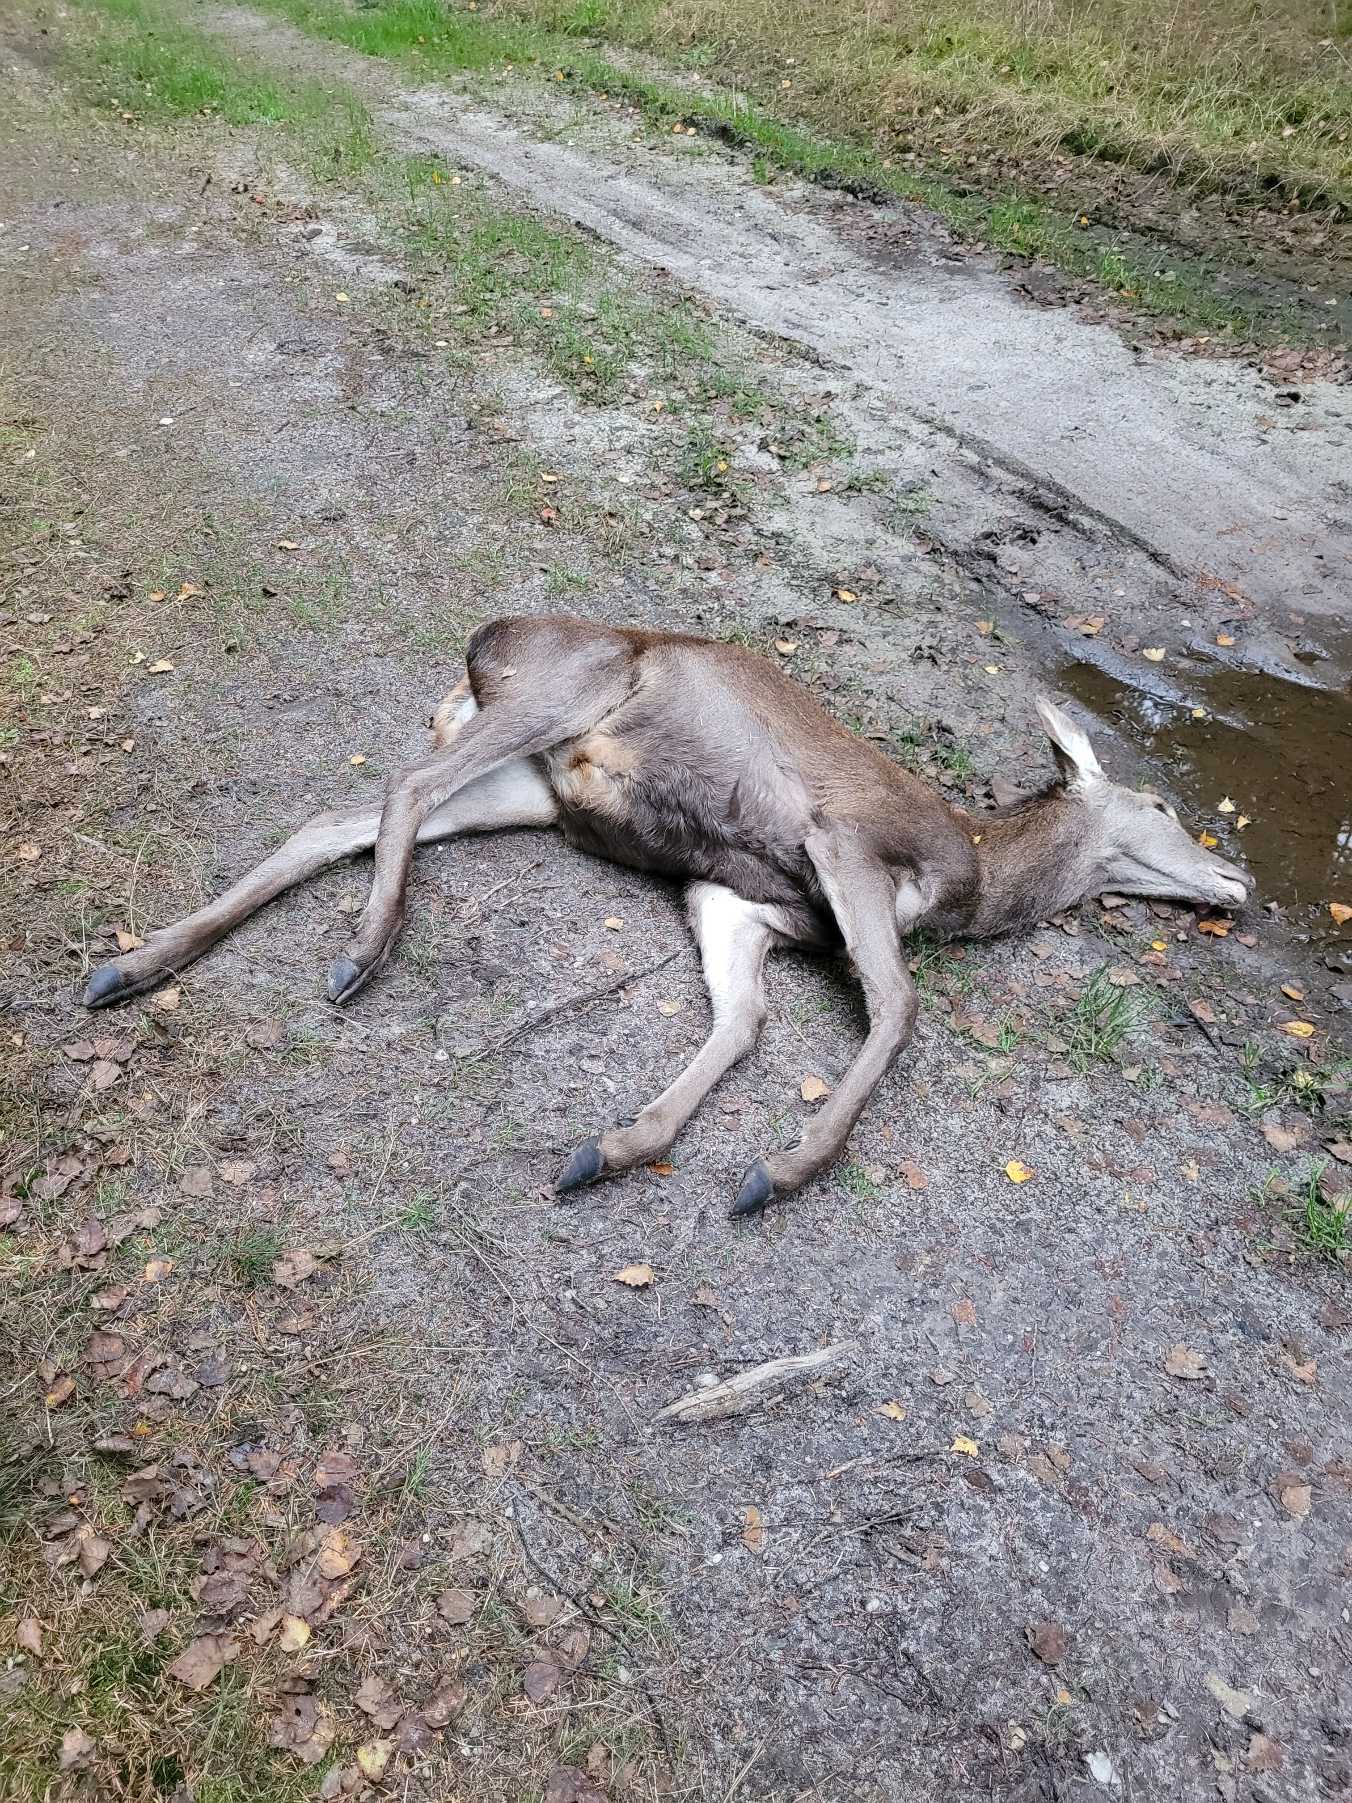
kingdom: Animalia
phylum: Chordata
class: Mammalia
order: Artiodactyla
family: Cervidae
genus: Cervus
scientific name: Cervus elaphus
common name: Krondyr
